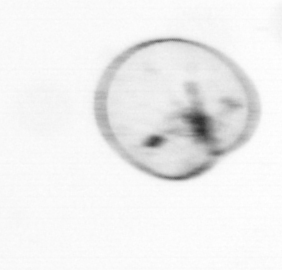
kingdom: Chromista
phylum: Myzozoa
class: Dinophyceae
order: Noctilucales
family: Noctilucaceae
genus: Noctiluca
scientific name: Noctiluca scintillans
